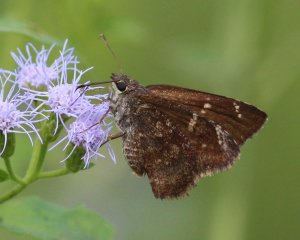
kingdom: Animalia
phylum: Arthropoda
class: Insecta
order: Lepidoptera
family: Hesperiidae
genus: Caicella
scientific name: Caicella calchas
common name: Mimosa Skipper
